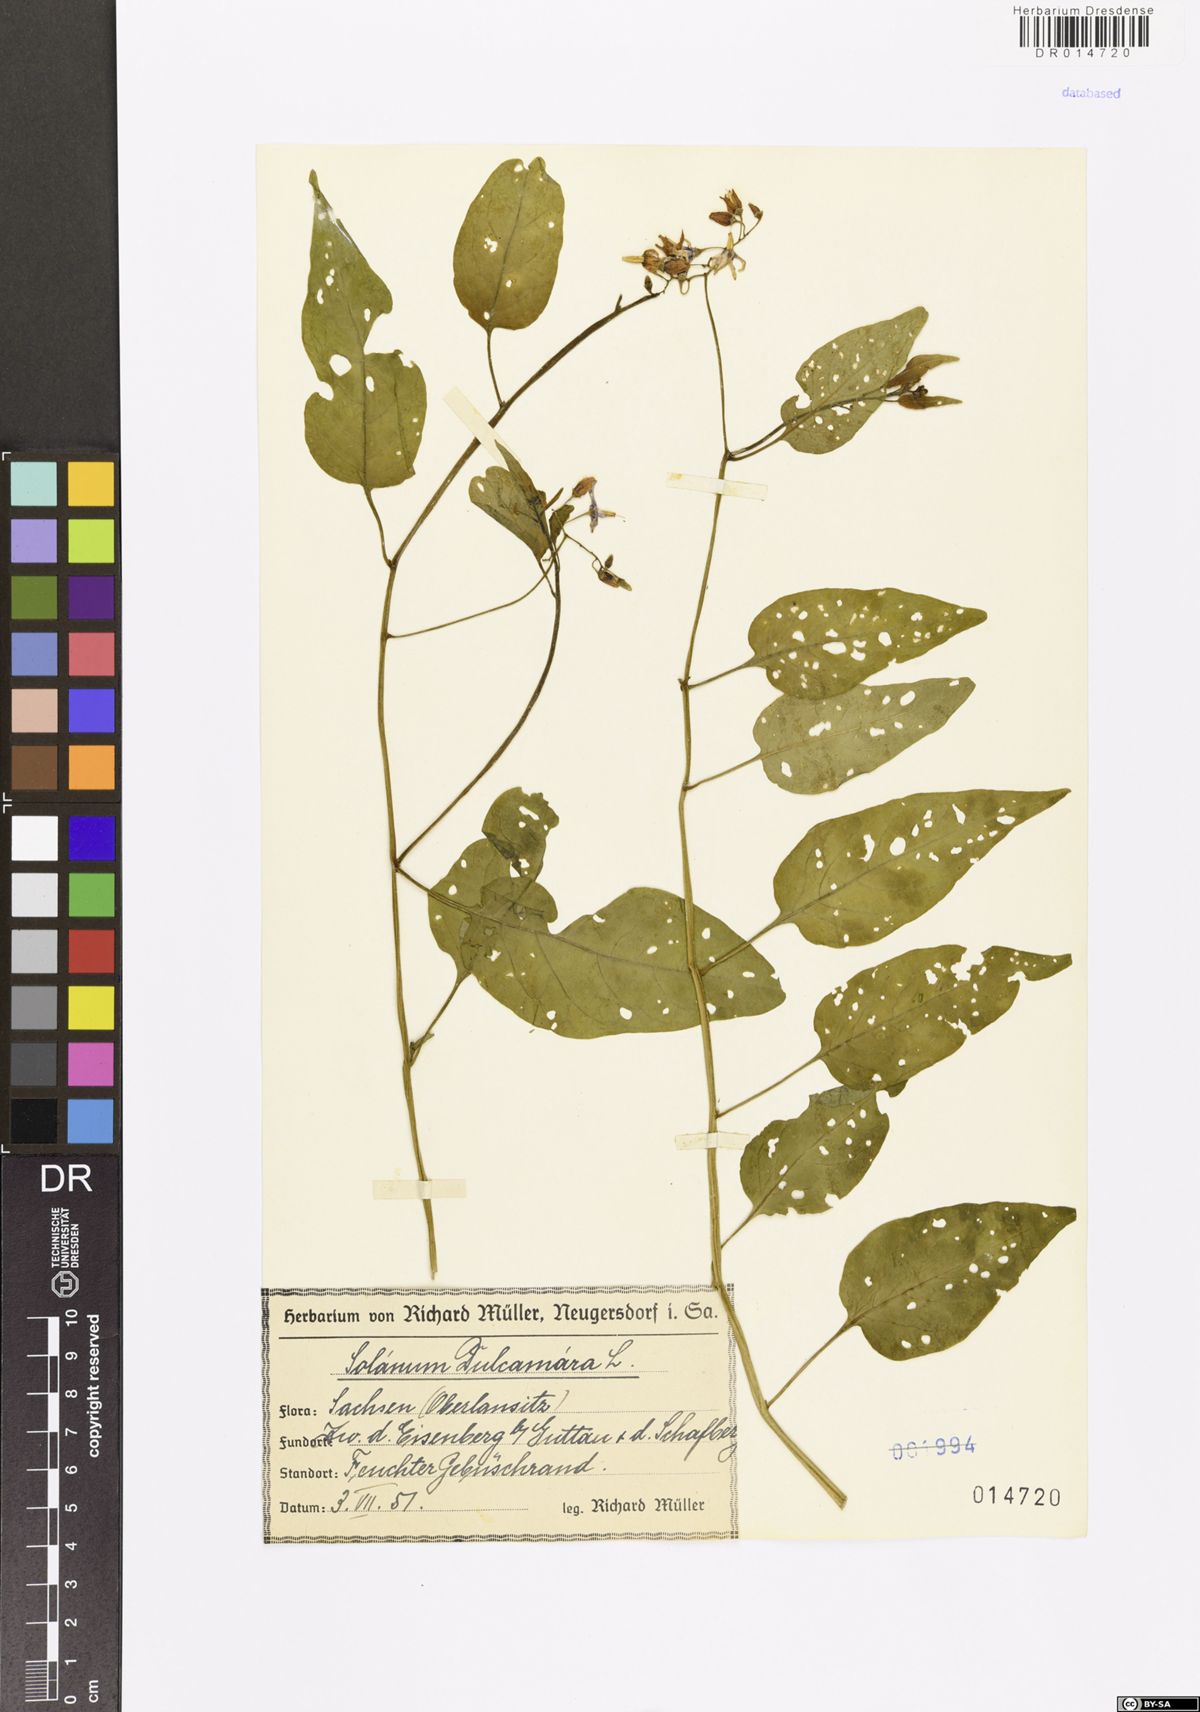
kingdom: Plantae
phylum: Tracheophyta
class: Magnoliopsida
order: Solanales
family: Solanaceae
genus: Solanum
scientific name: Solanum dulcamara
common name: Climbing nightshade
